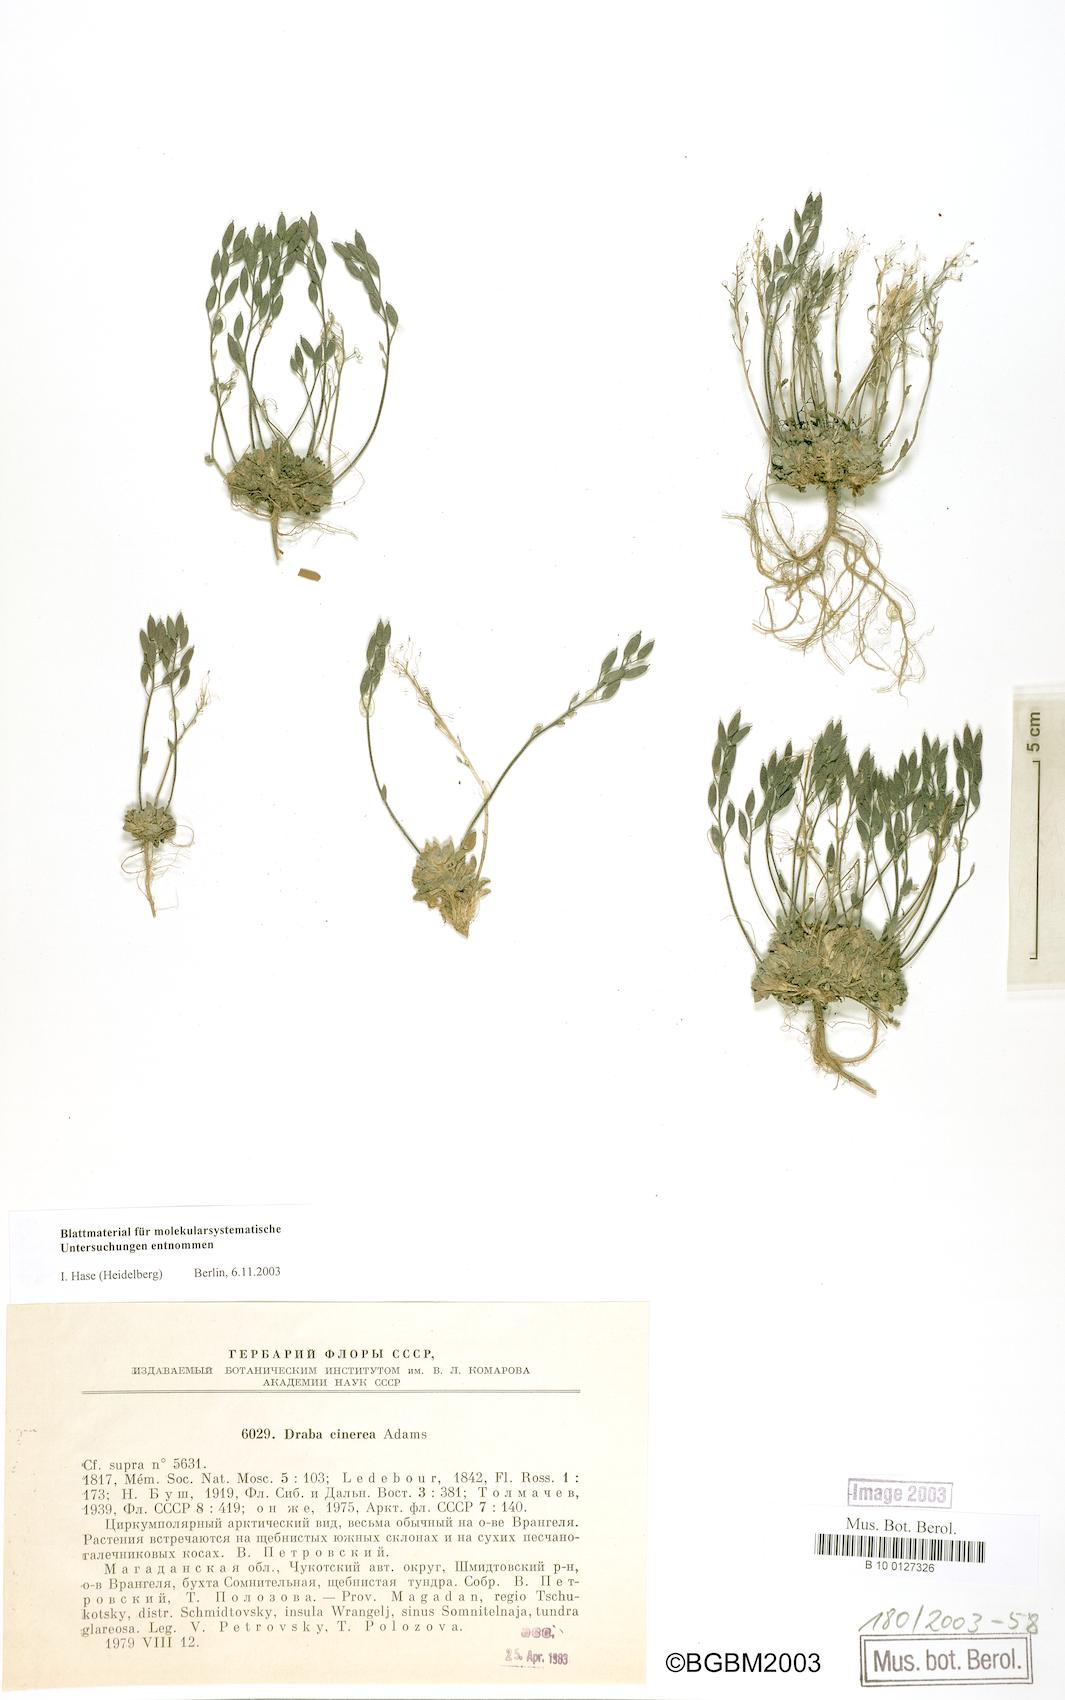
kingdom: Plantae
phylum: Tracheophyta
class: Magnoliopsida
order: Brassicales
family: Brassicaceae
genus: Draba
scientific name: Draba cinerea
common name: Ash-coloured whitlow-grass
